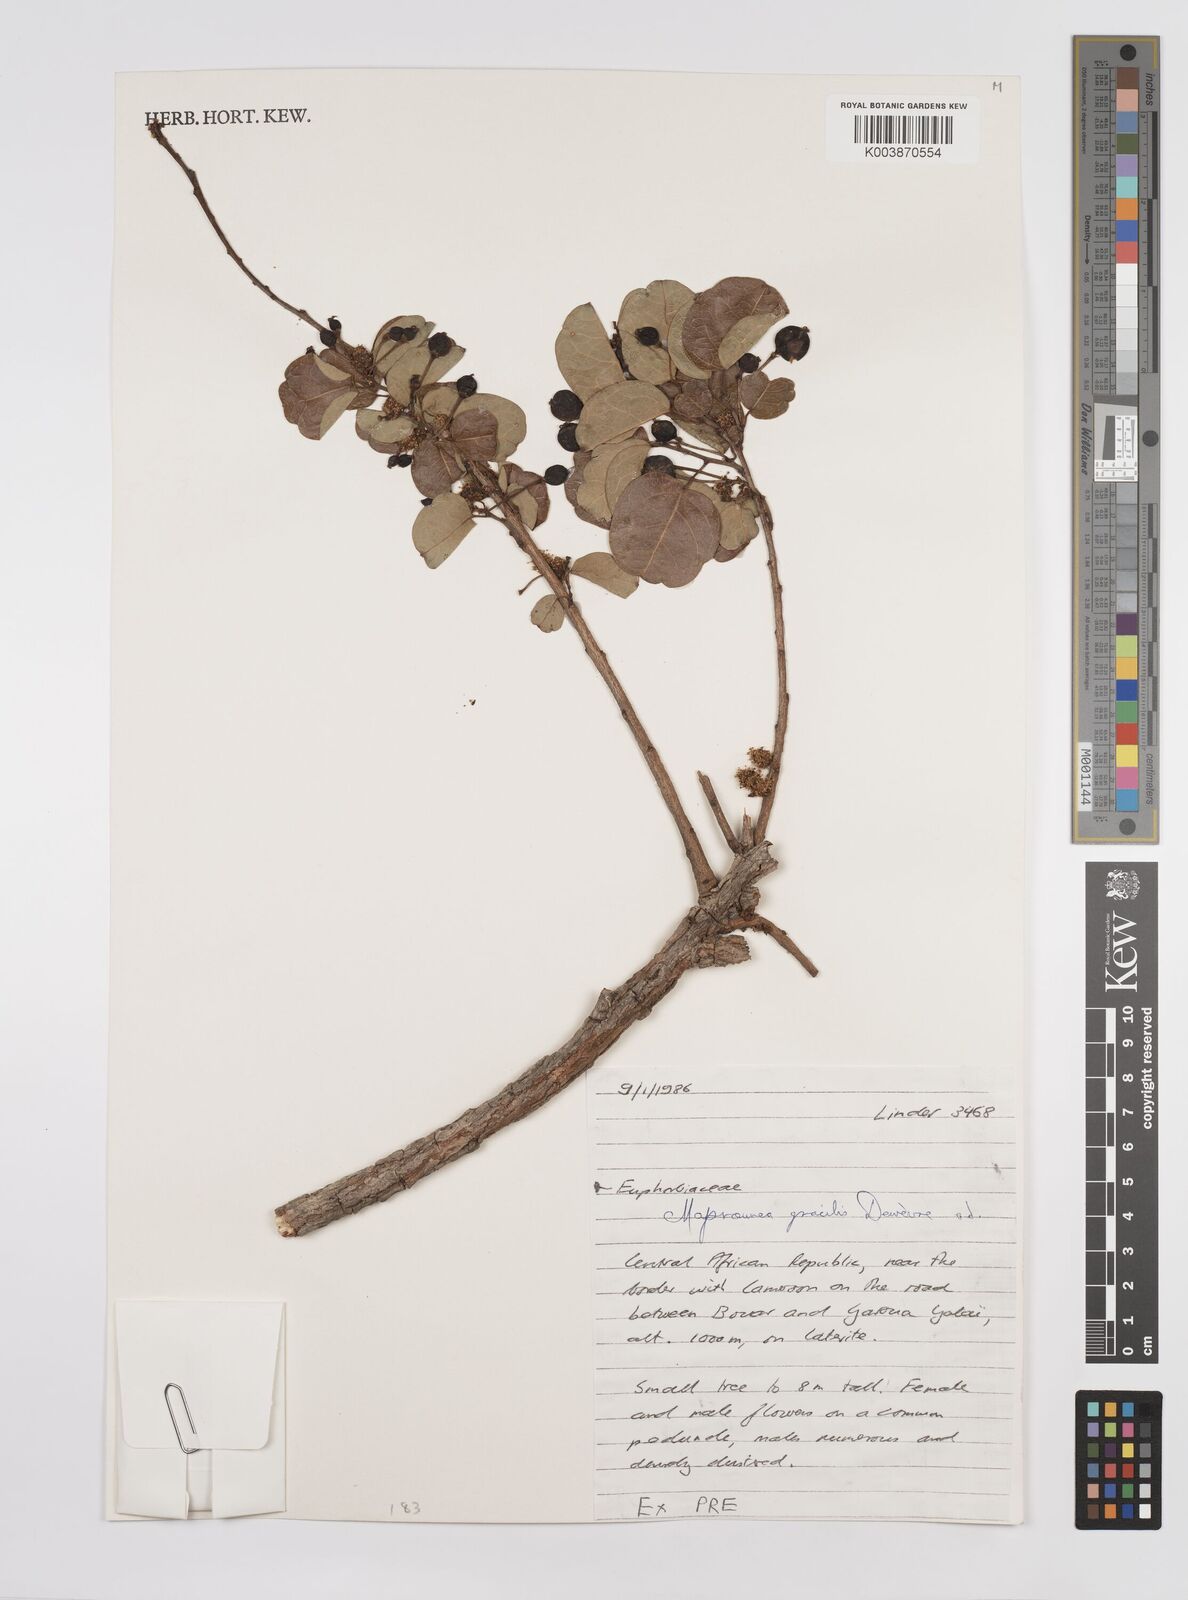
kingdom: Plantae
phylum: Tracheophyta
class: Magnoliopsida
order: Malpighiales
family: Euphorbiaceae
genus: Maprounea
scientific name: Maprounea africana
